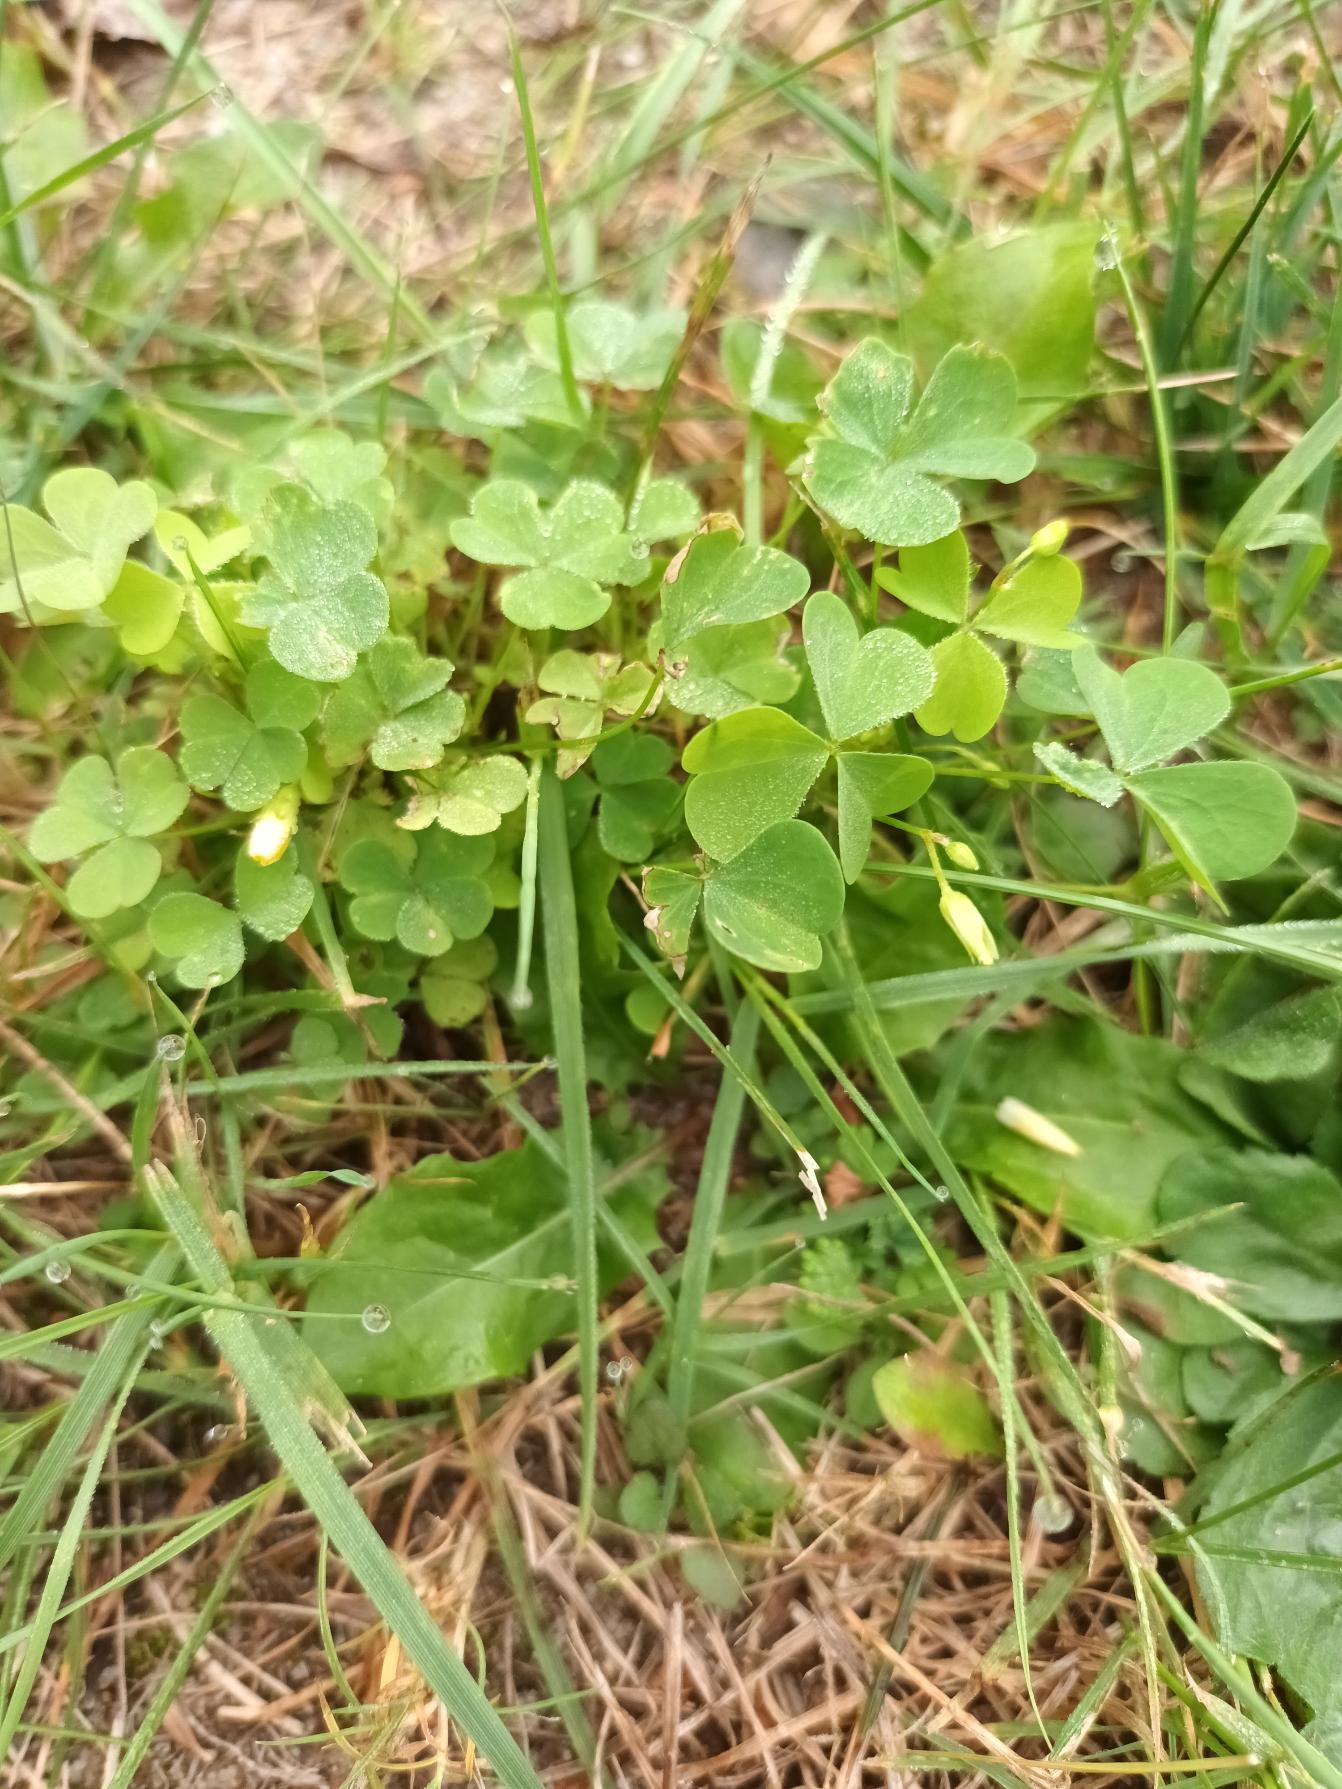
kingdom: Plantae
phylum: Tracheophyta
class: Magnoliopsida
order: Oxalidales
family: Oxalidaceae
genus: Oxalis
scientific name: Oxalis stricta
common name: Rank surkløver
